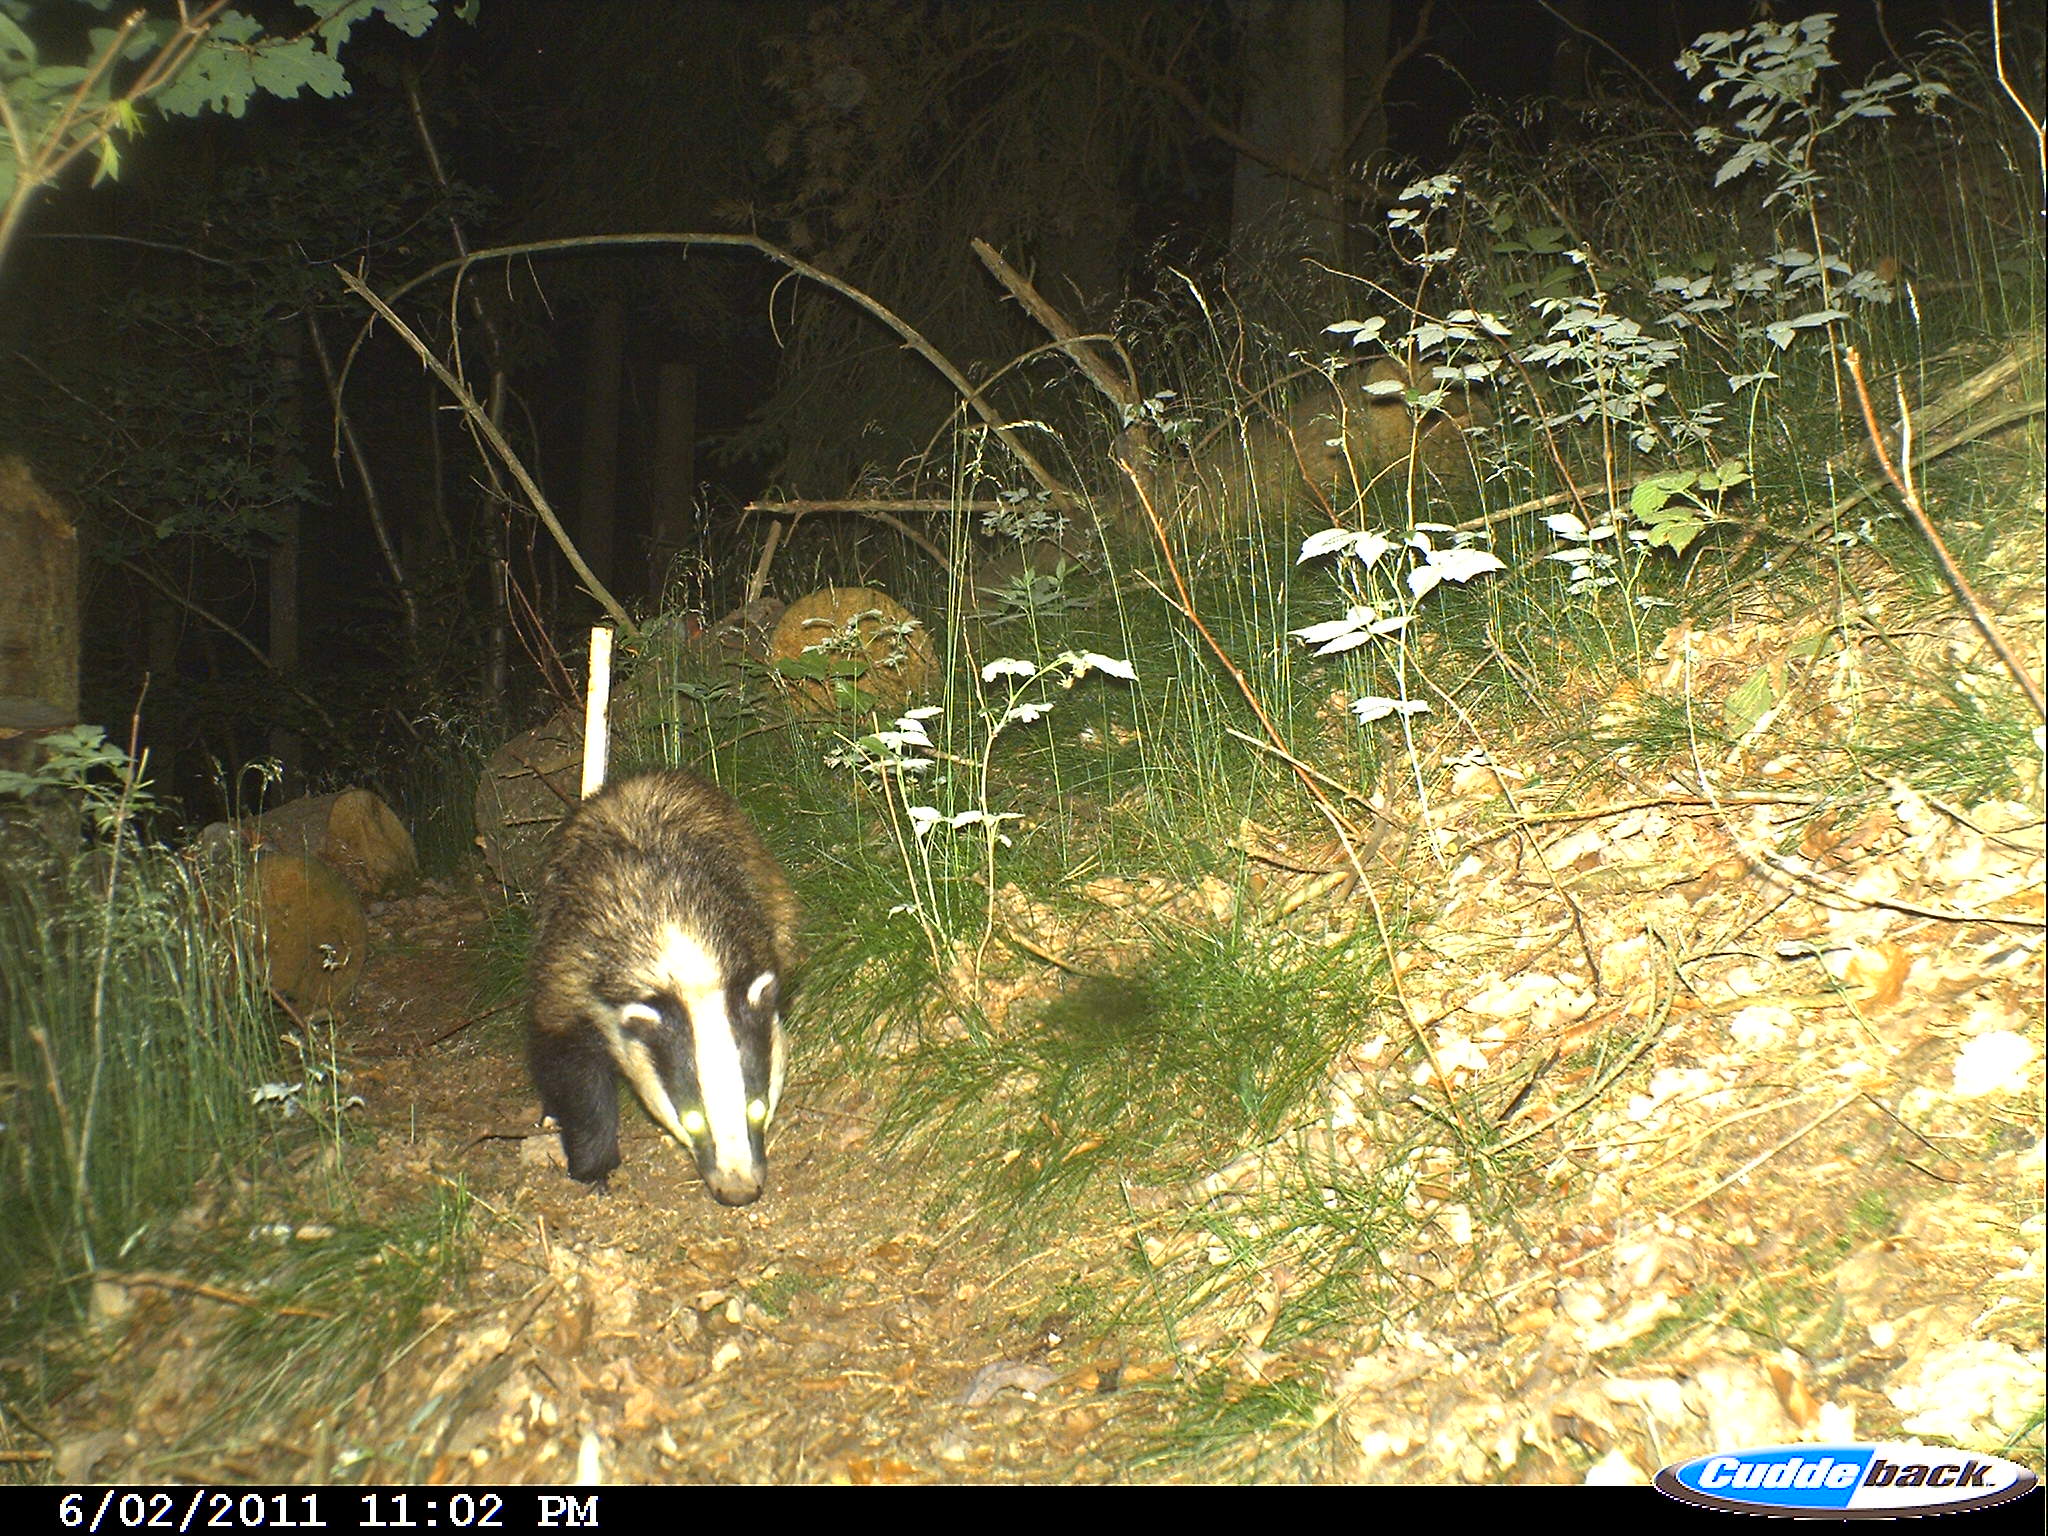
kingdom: Animalia
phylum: Chordata
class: Mammalia
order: Carnivora
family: Mustelidae
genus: Meles
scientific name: Meles meles
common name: Eurasian badger
